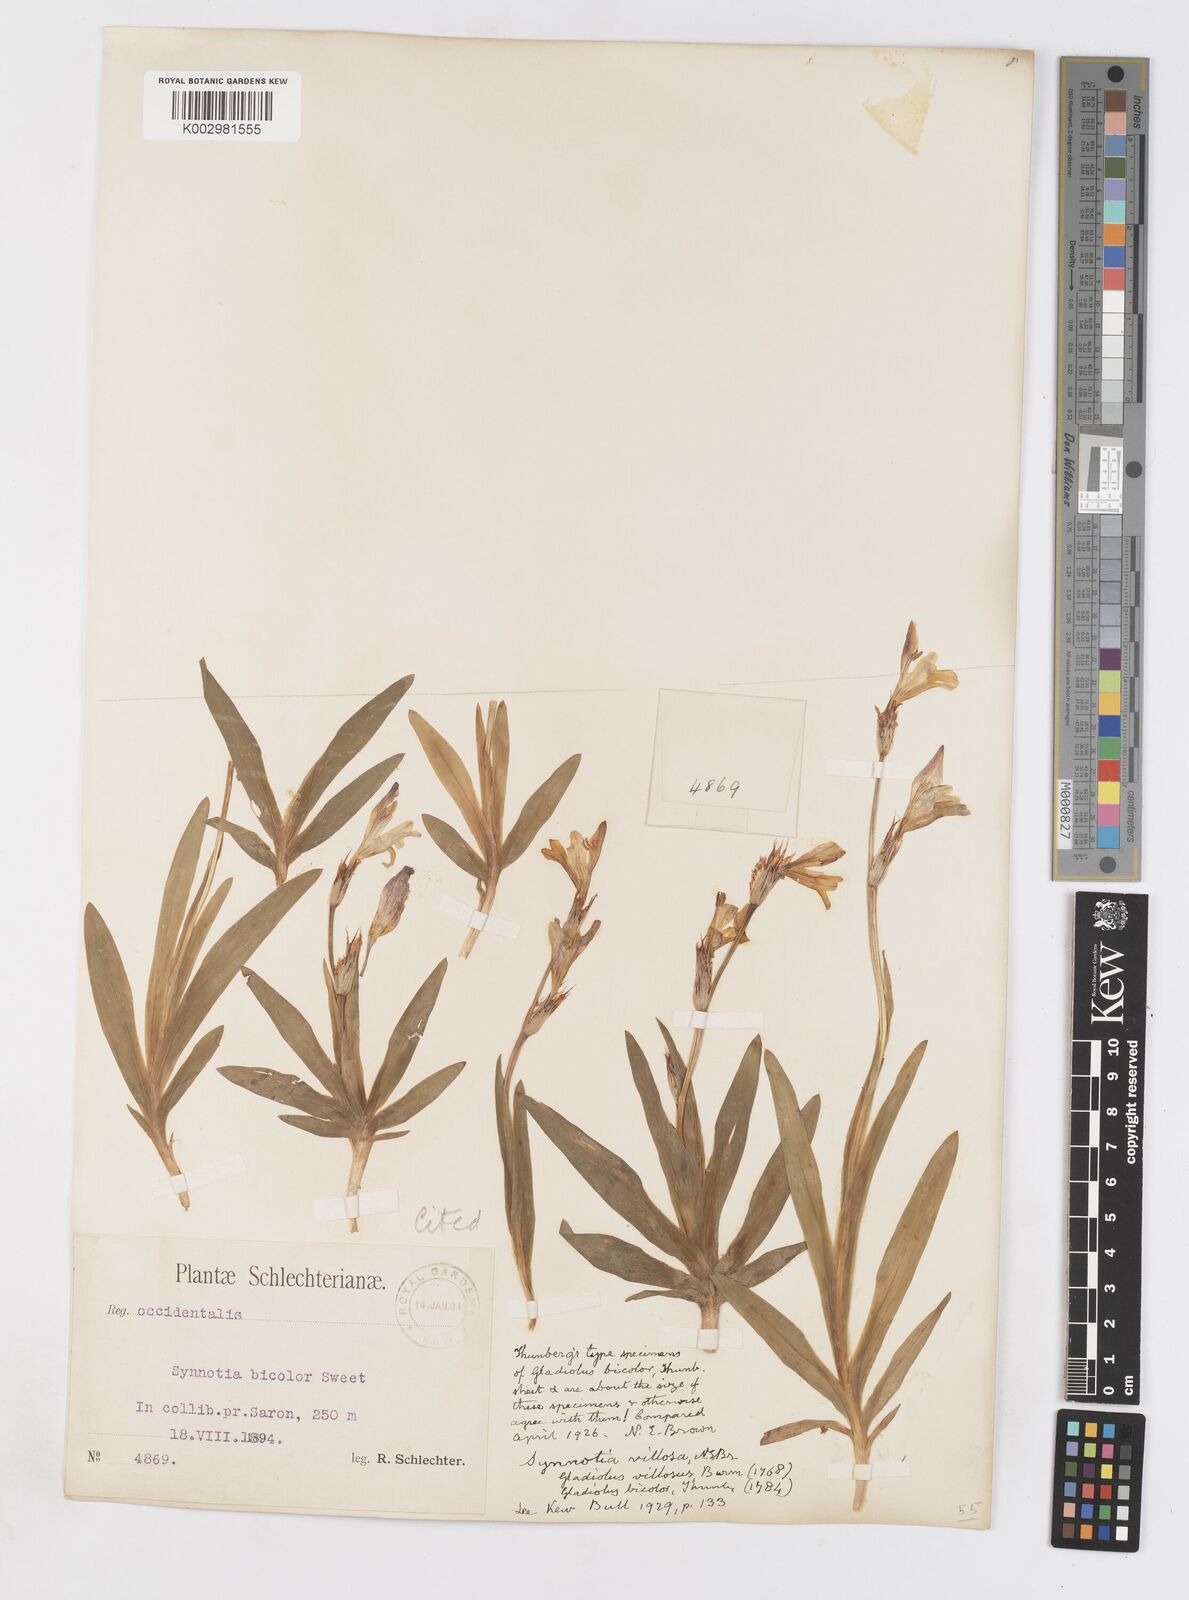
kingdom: Plantae
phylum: Tracheophyta
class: Liliopsida
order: Asparagales
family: Iridaceae
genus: Sparaxis
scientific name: Sparaxis villosa
